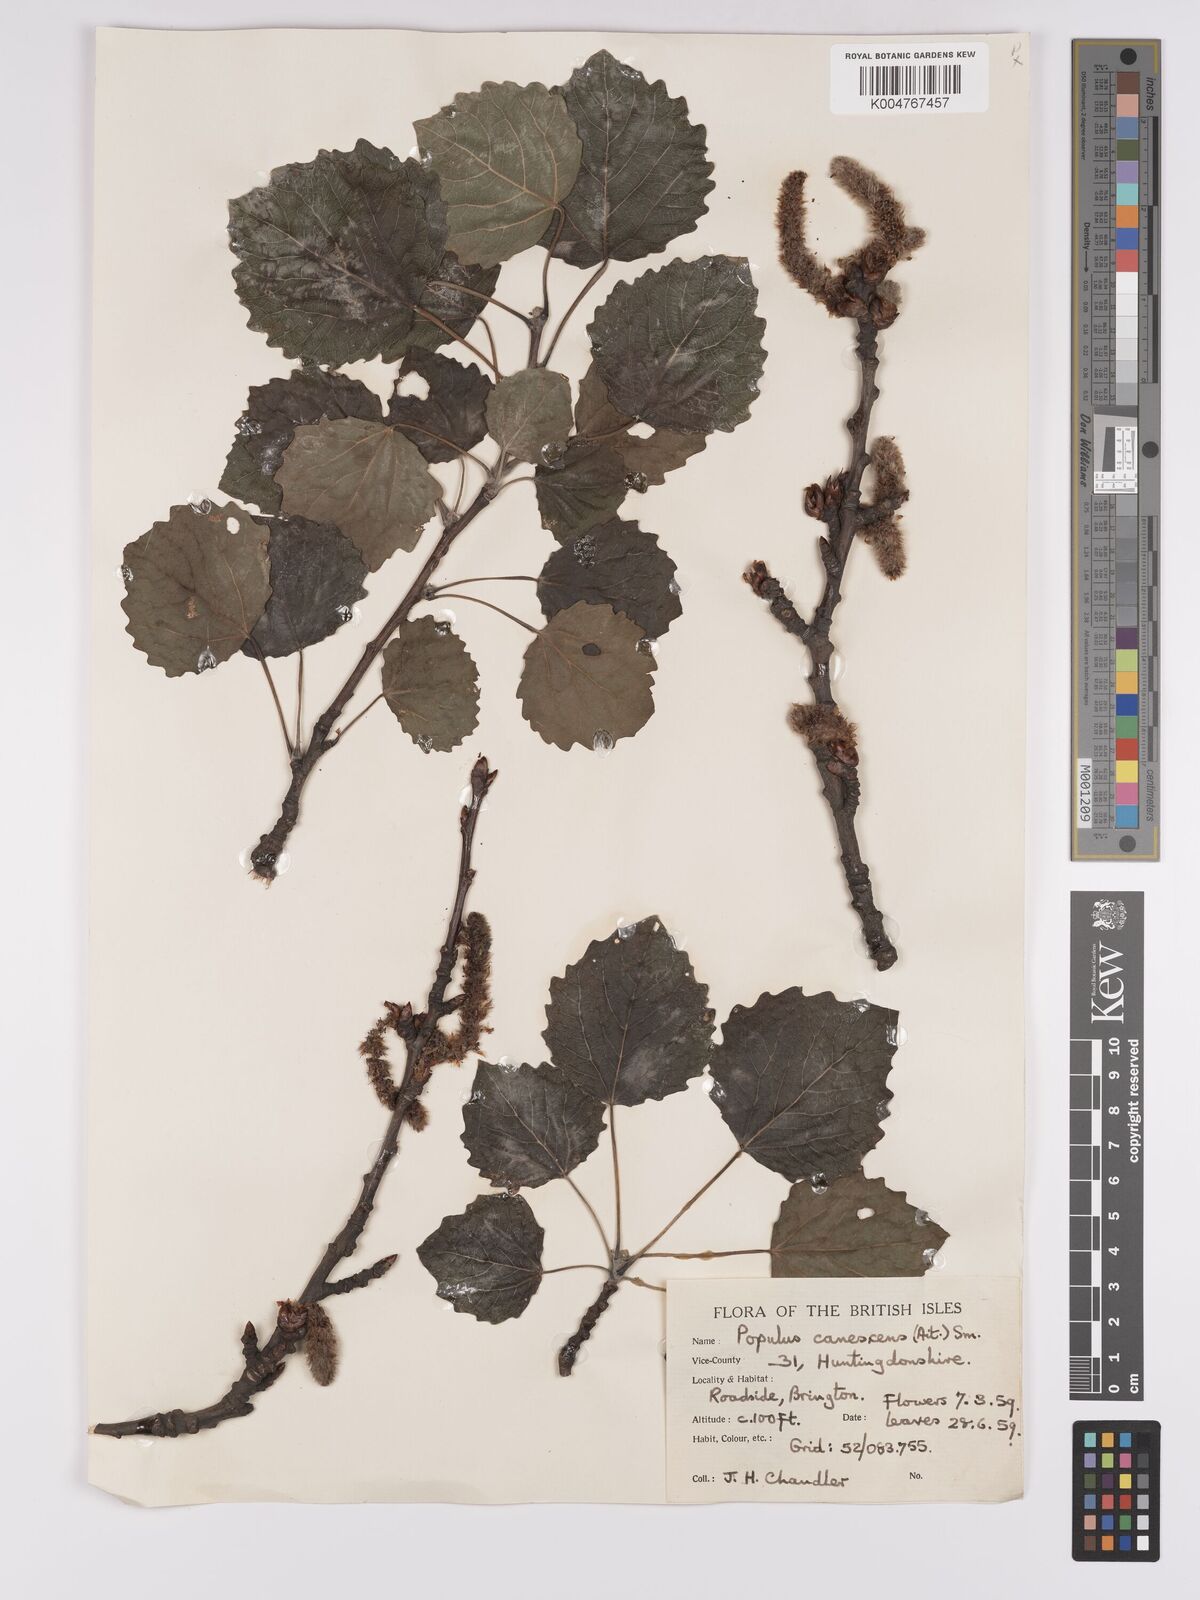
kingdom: Plantae
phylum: Tracheophyta
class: Magnoliopsida
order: Malpighiales
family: Salicaceae
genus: Populus
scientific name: Populus canescens
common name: Gray poplar
